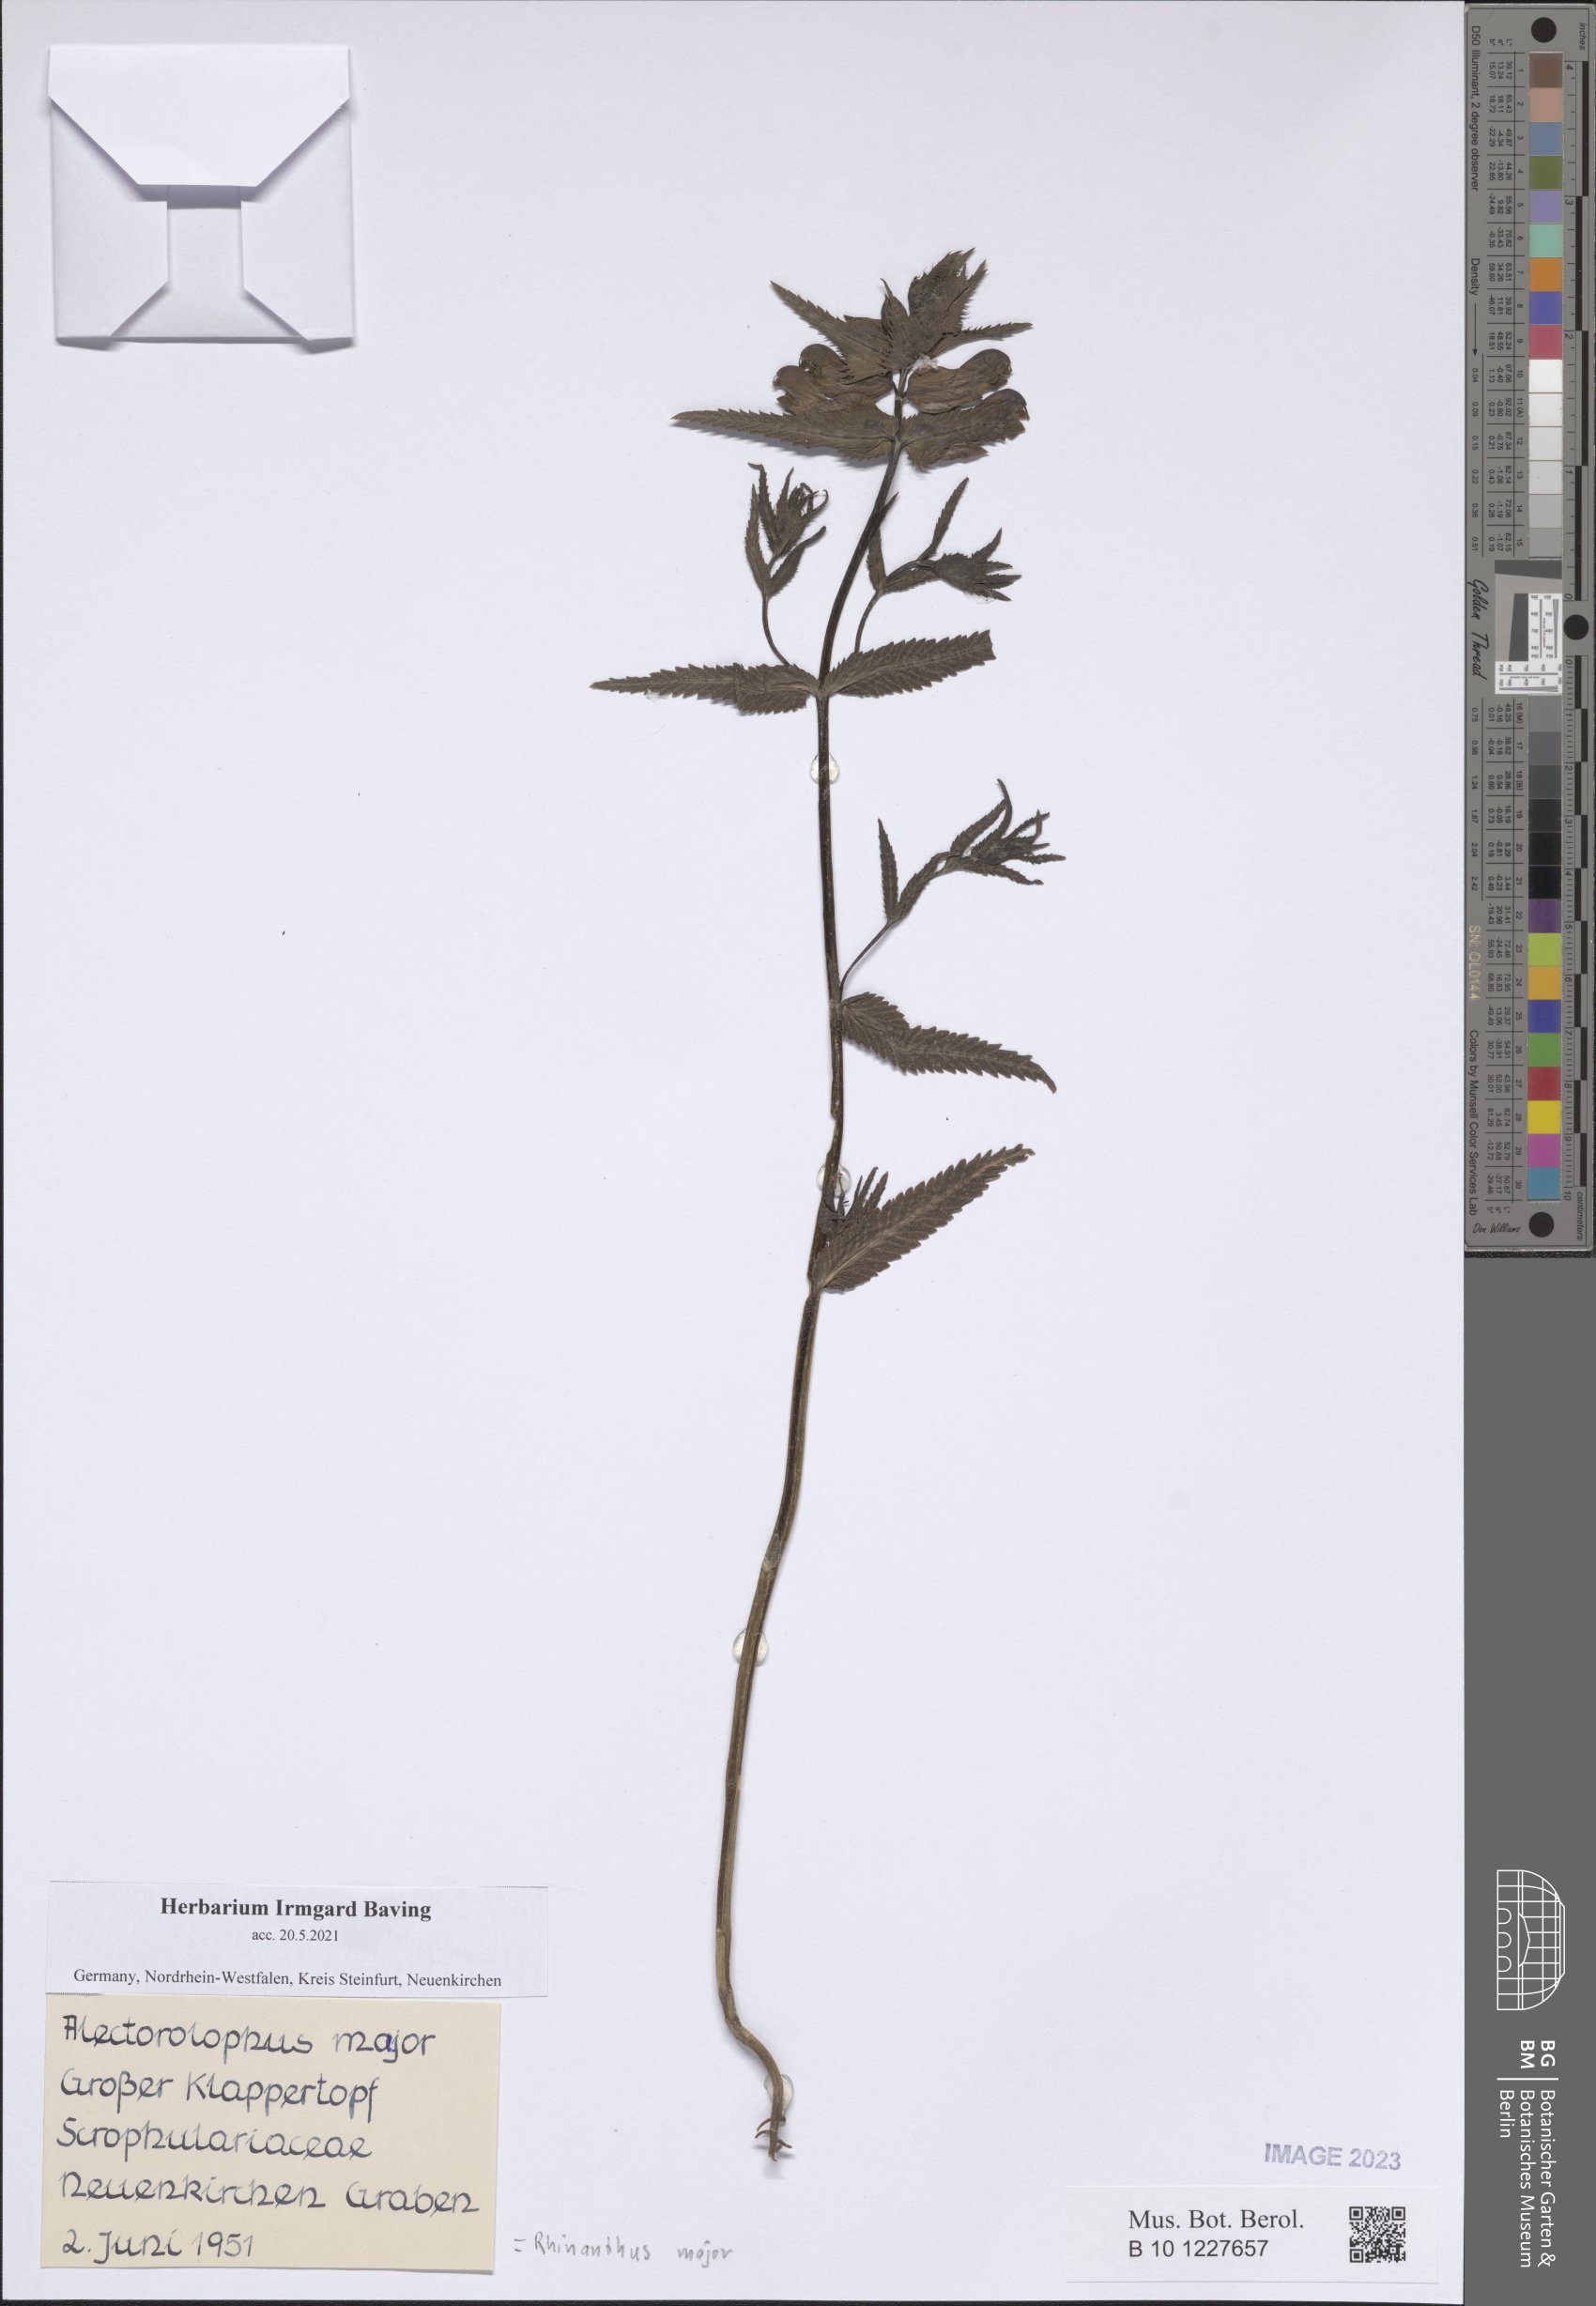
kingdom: Plantae
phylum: Tracheophyta
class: Magnoliopsida
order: Lamiales
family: Orobanchaceae
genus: Rhinanthus
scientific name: Rhinanthus serotinus
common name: Late-flowering yellow rattle
